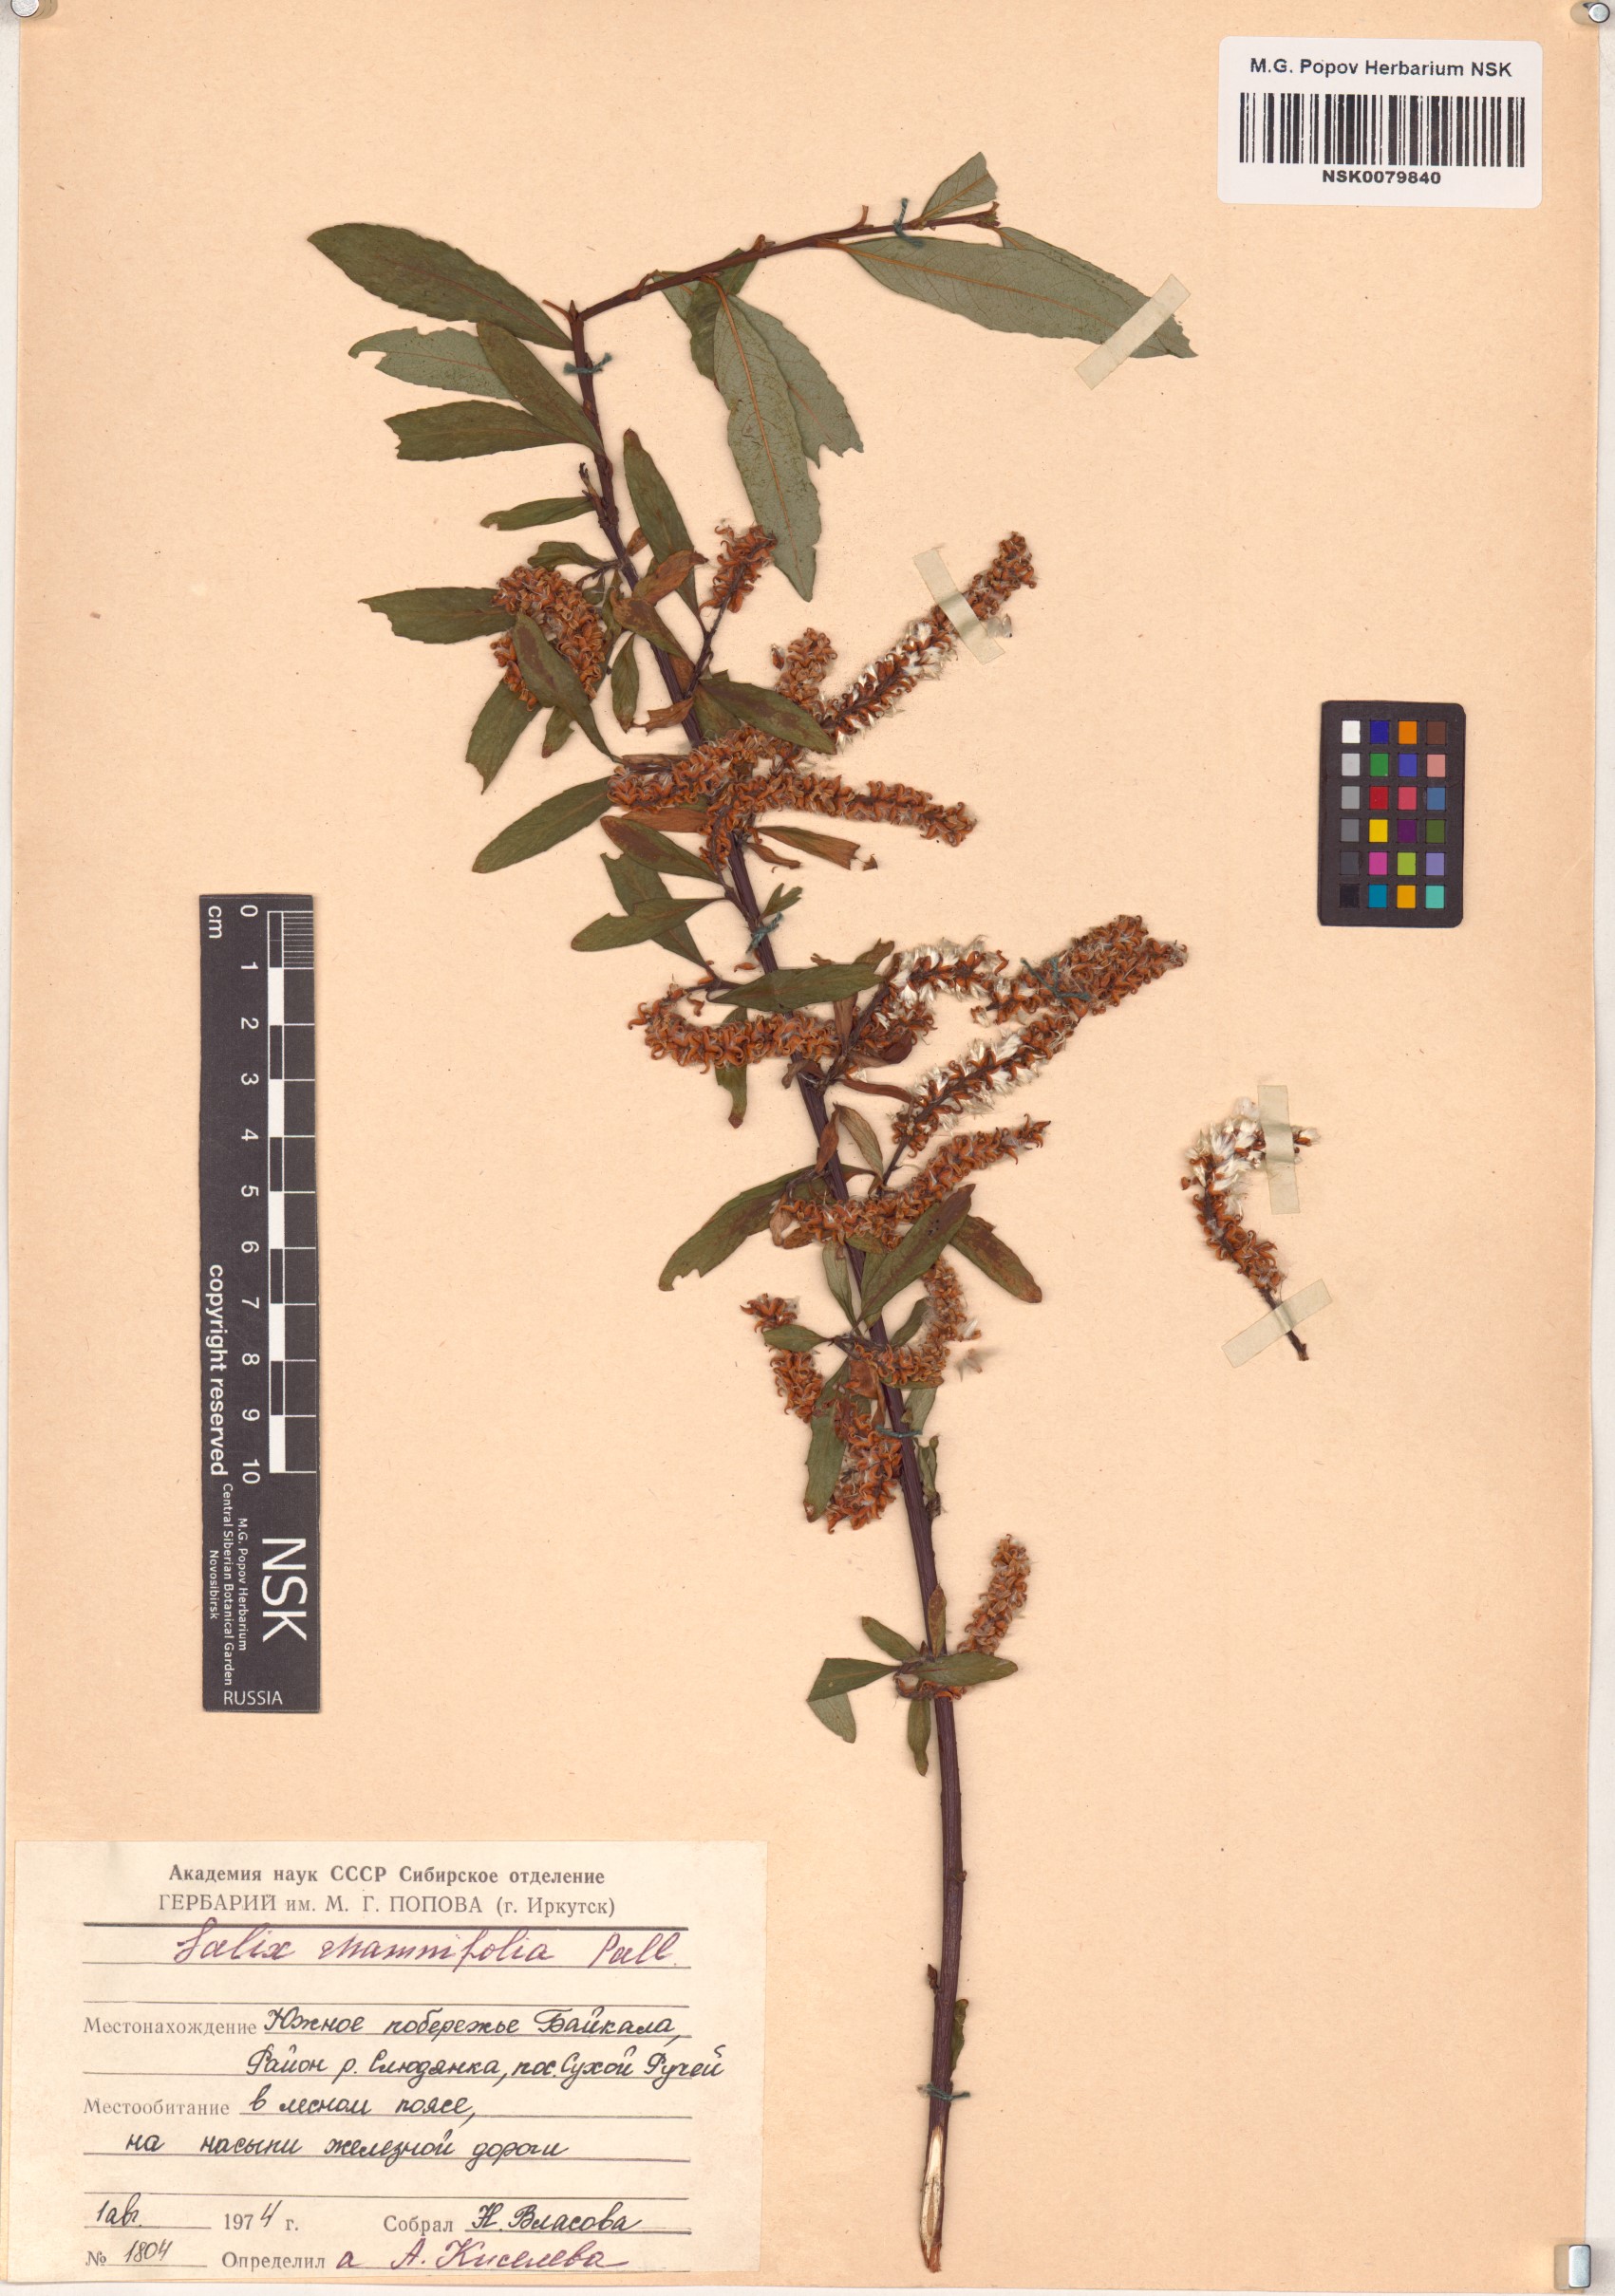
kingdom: Plantae
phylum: Tracheophyta
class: Magnoliopsida
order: Malpighiales
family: Salicaceae
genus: Salix
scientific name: Salix rhamnifolia
